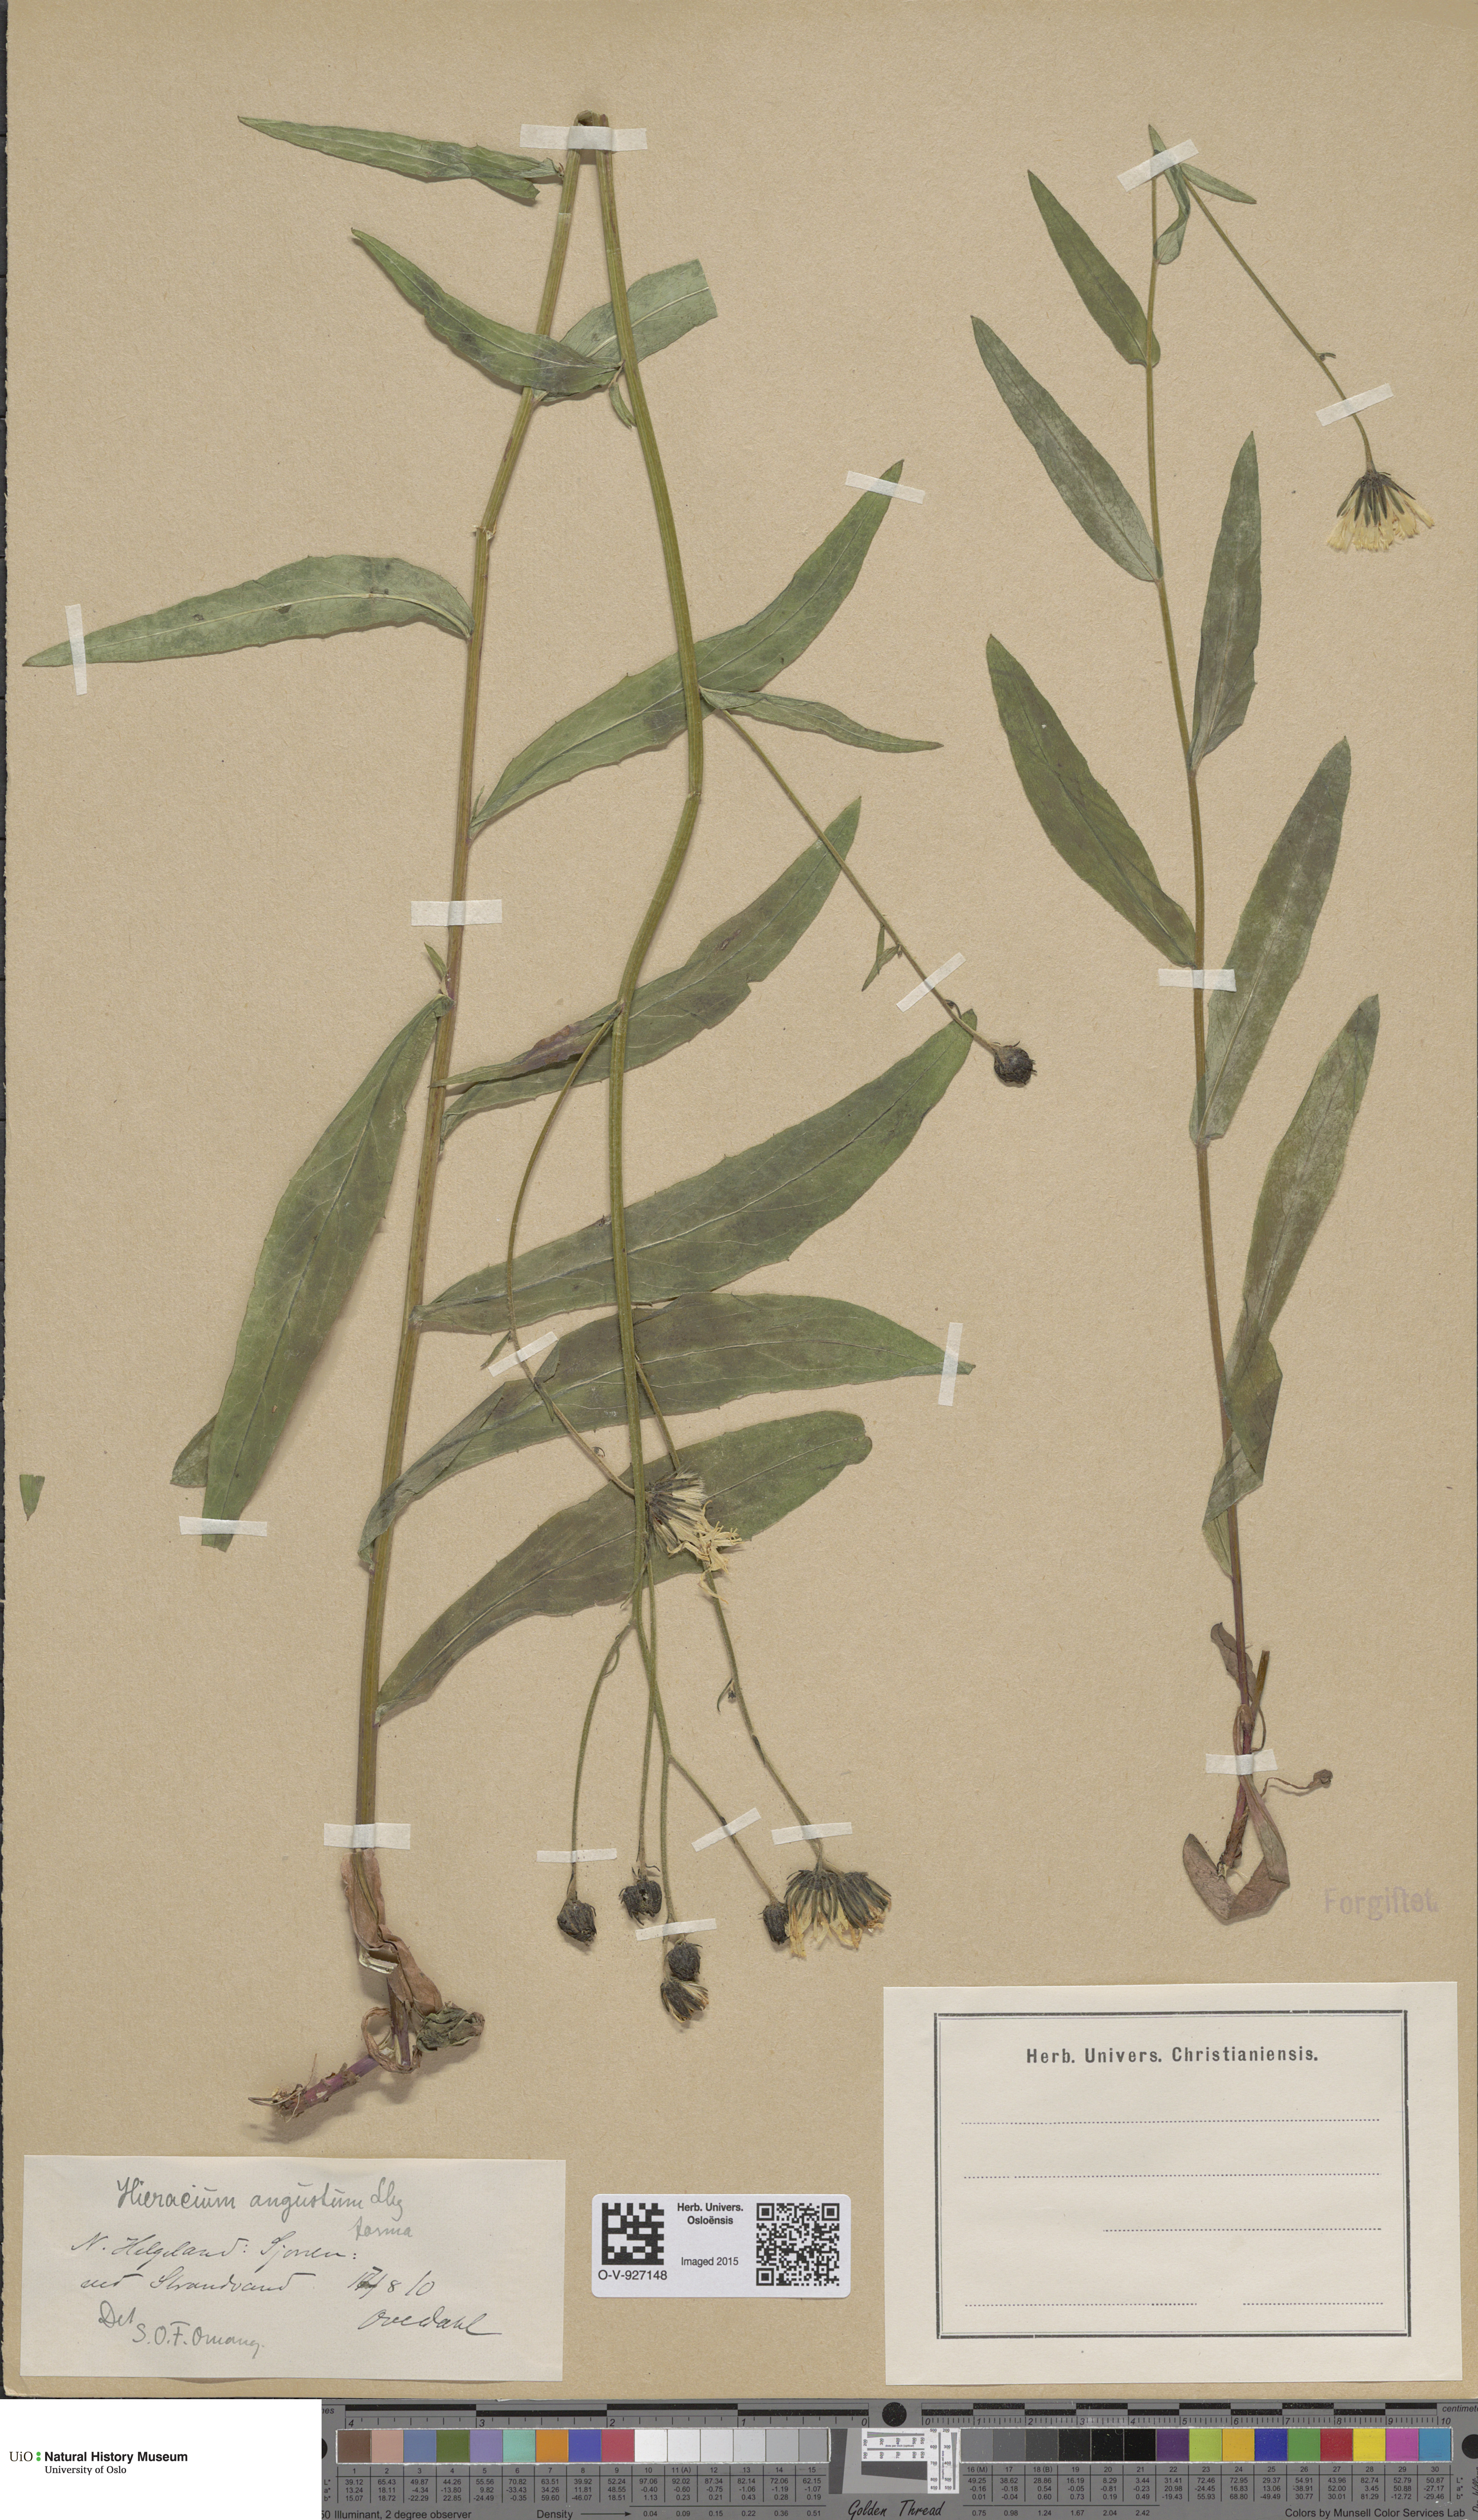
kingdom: Plantae
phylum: Tracheophyta
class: Magnoliopsida
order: Asterales
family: Asteraceae
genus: Hieracium
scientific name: Hieracium angustum
